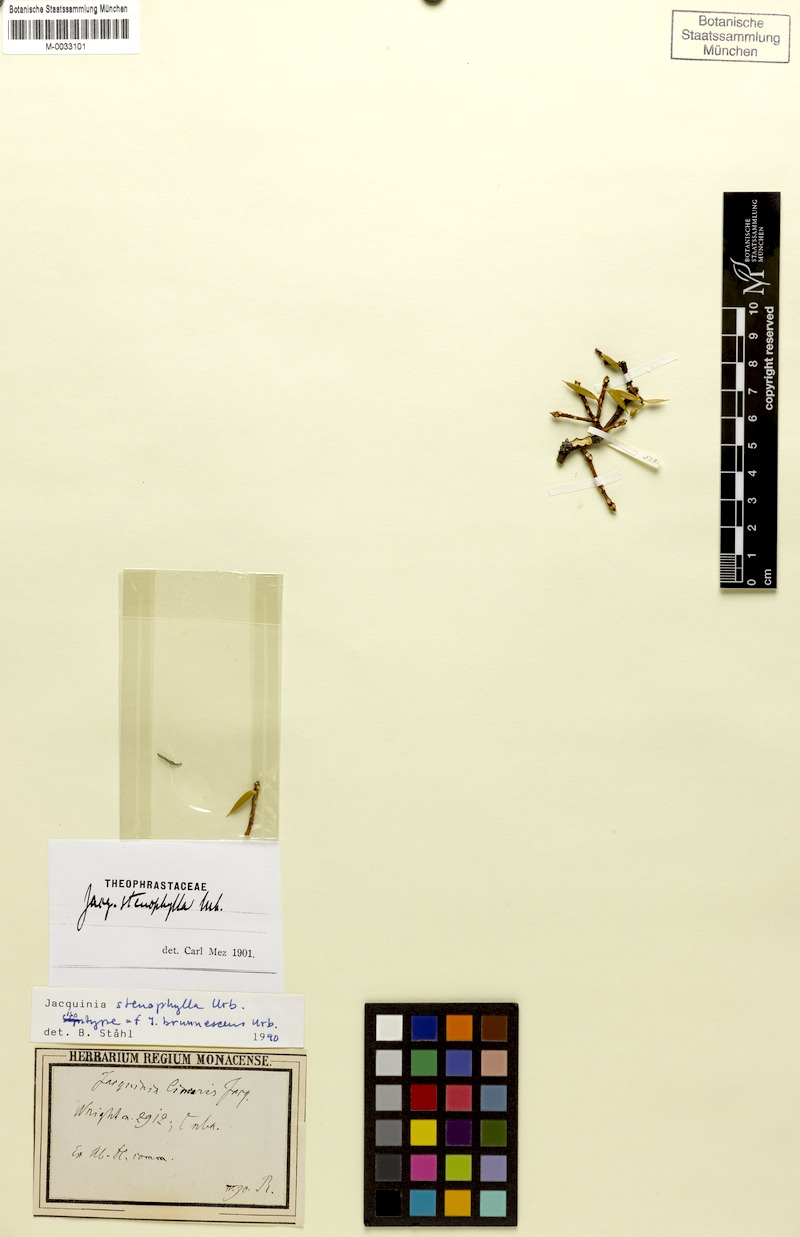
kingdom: Plantae
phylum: Tracheophyta
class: Magnoliopsida
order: Ericales
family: Primulaceae
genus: Bonellia
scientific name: Bonellia stenophylla
